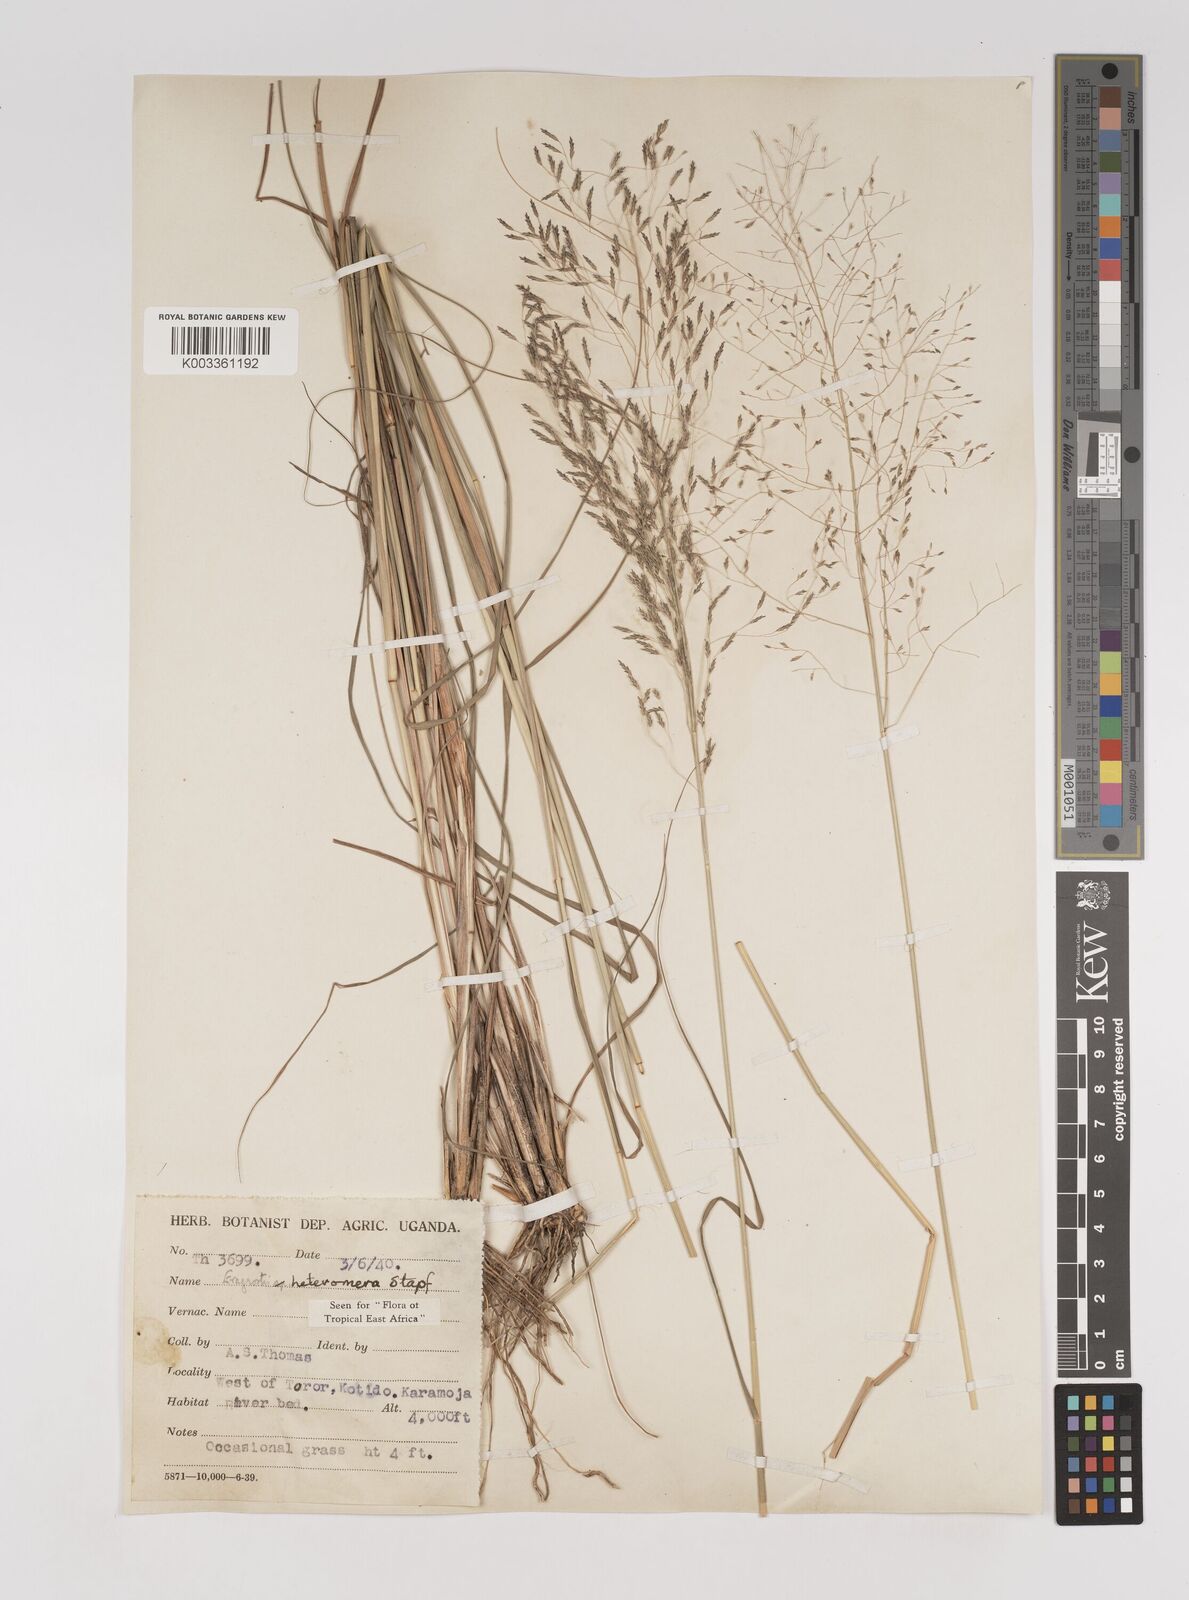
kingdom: Plantae
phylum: Tracheophyta
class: Liliopsida
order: Poales
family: Poaceae
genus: Eragrostis
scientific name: Eragrostis heteromera
